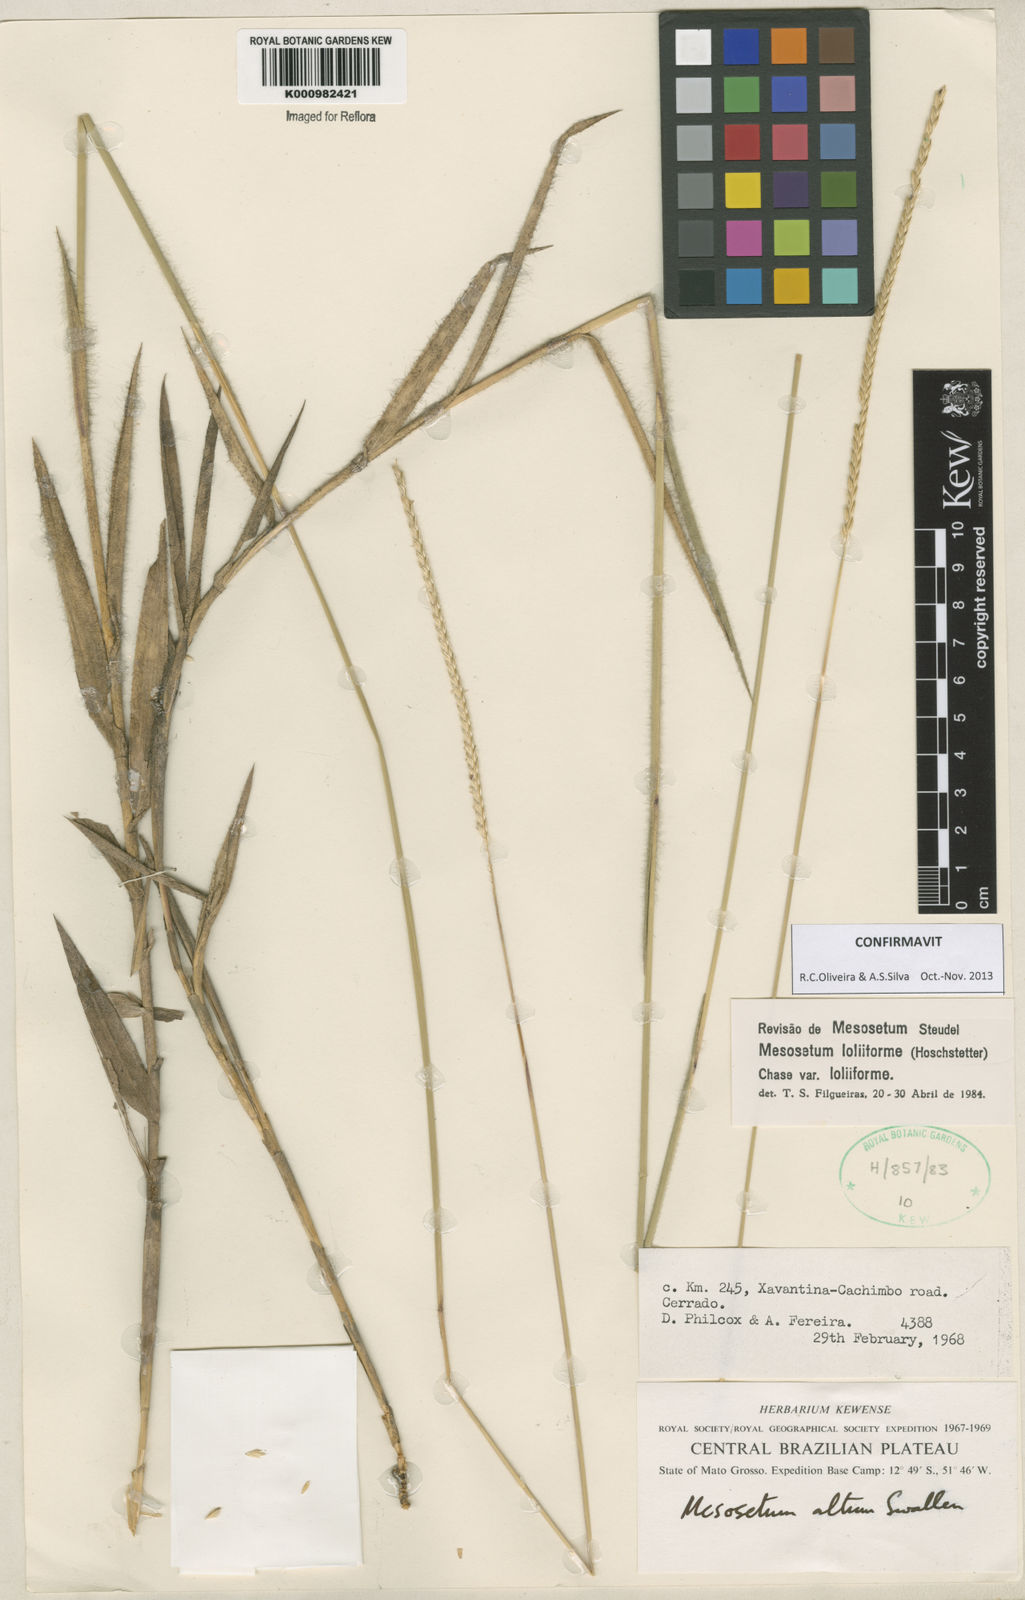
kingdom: Plantae
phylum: Tracheophyta
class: Liliopsida
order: Poales
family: Poaceae
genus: Mesosetum
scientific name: Mesosetum
